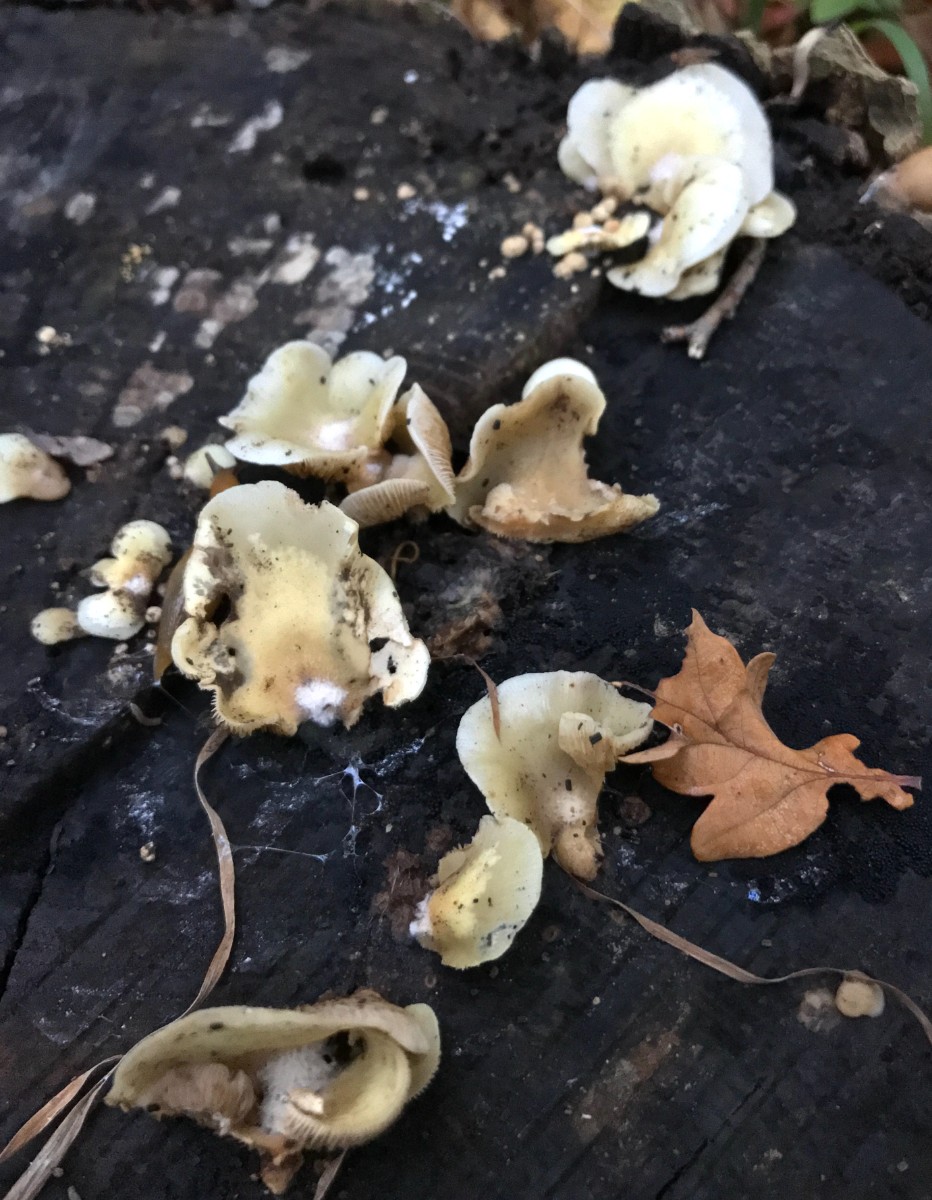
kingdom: Fungi
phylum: Basidiomycota
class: Agaricomycetes
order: Agaricales
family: Crepidotaceae
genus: Crepidotus
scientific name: Crepidotus mollis
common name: blød muslingesvamp
